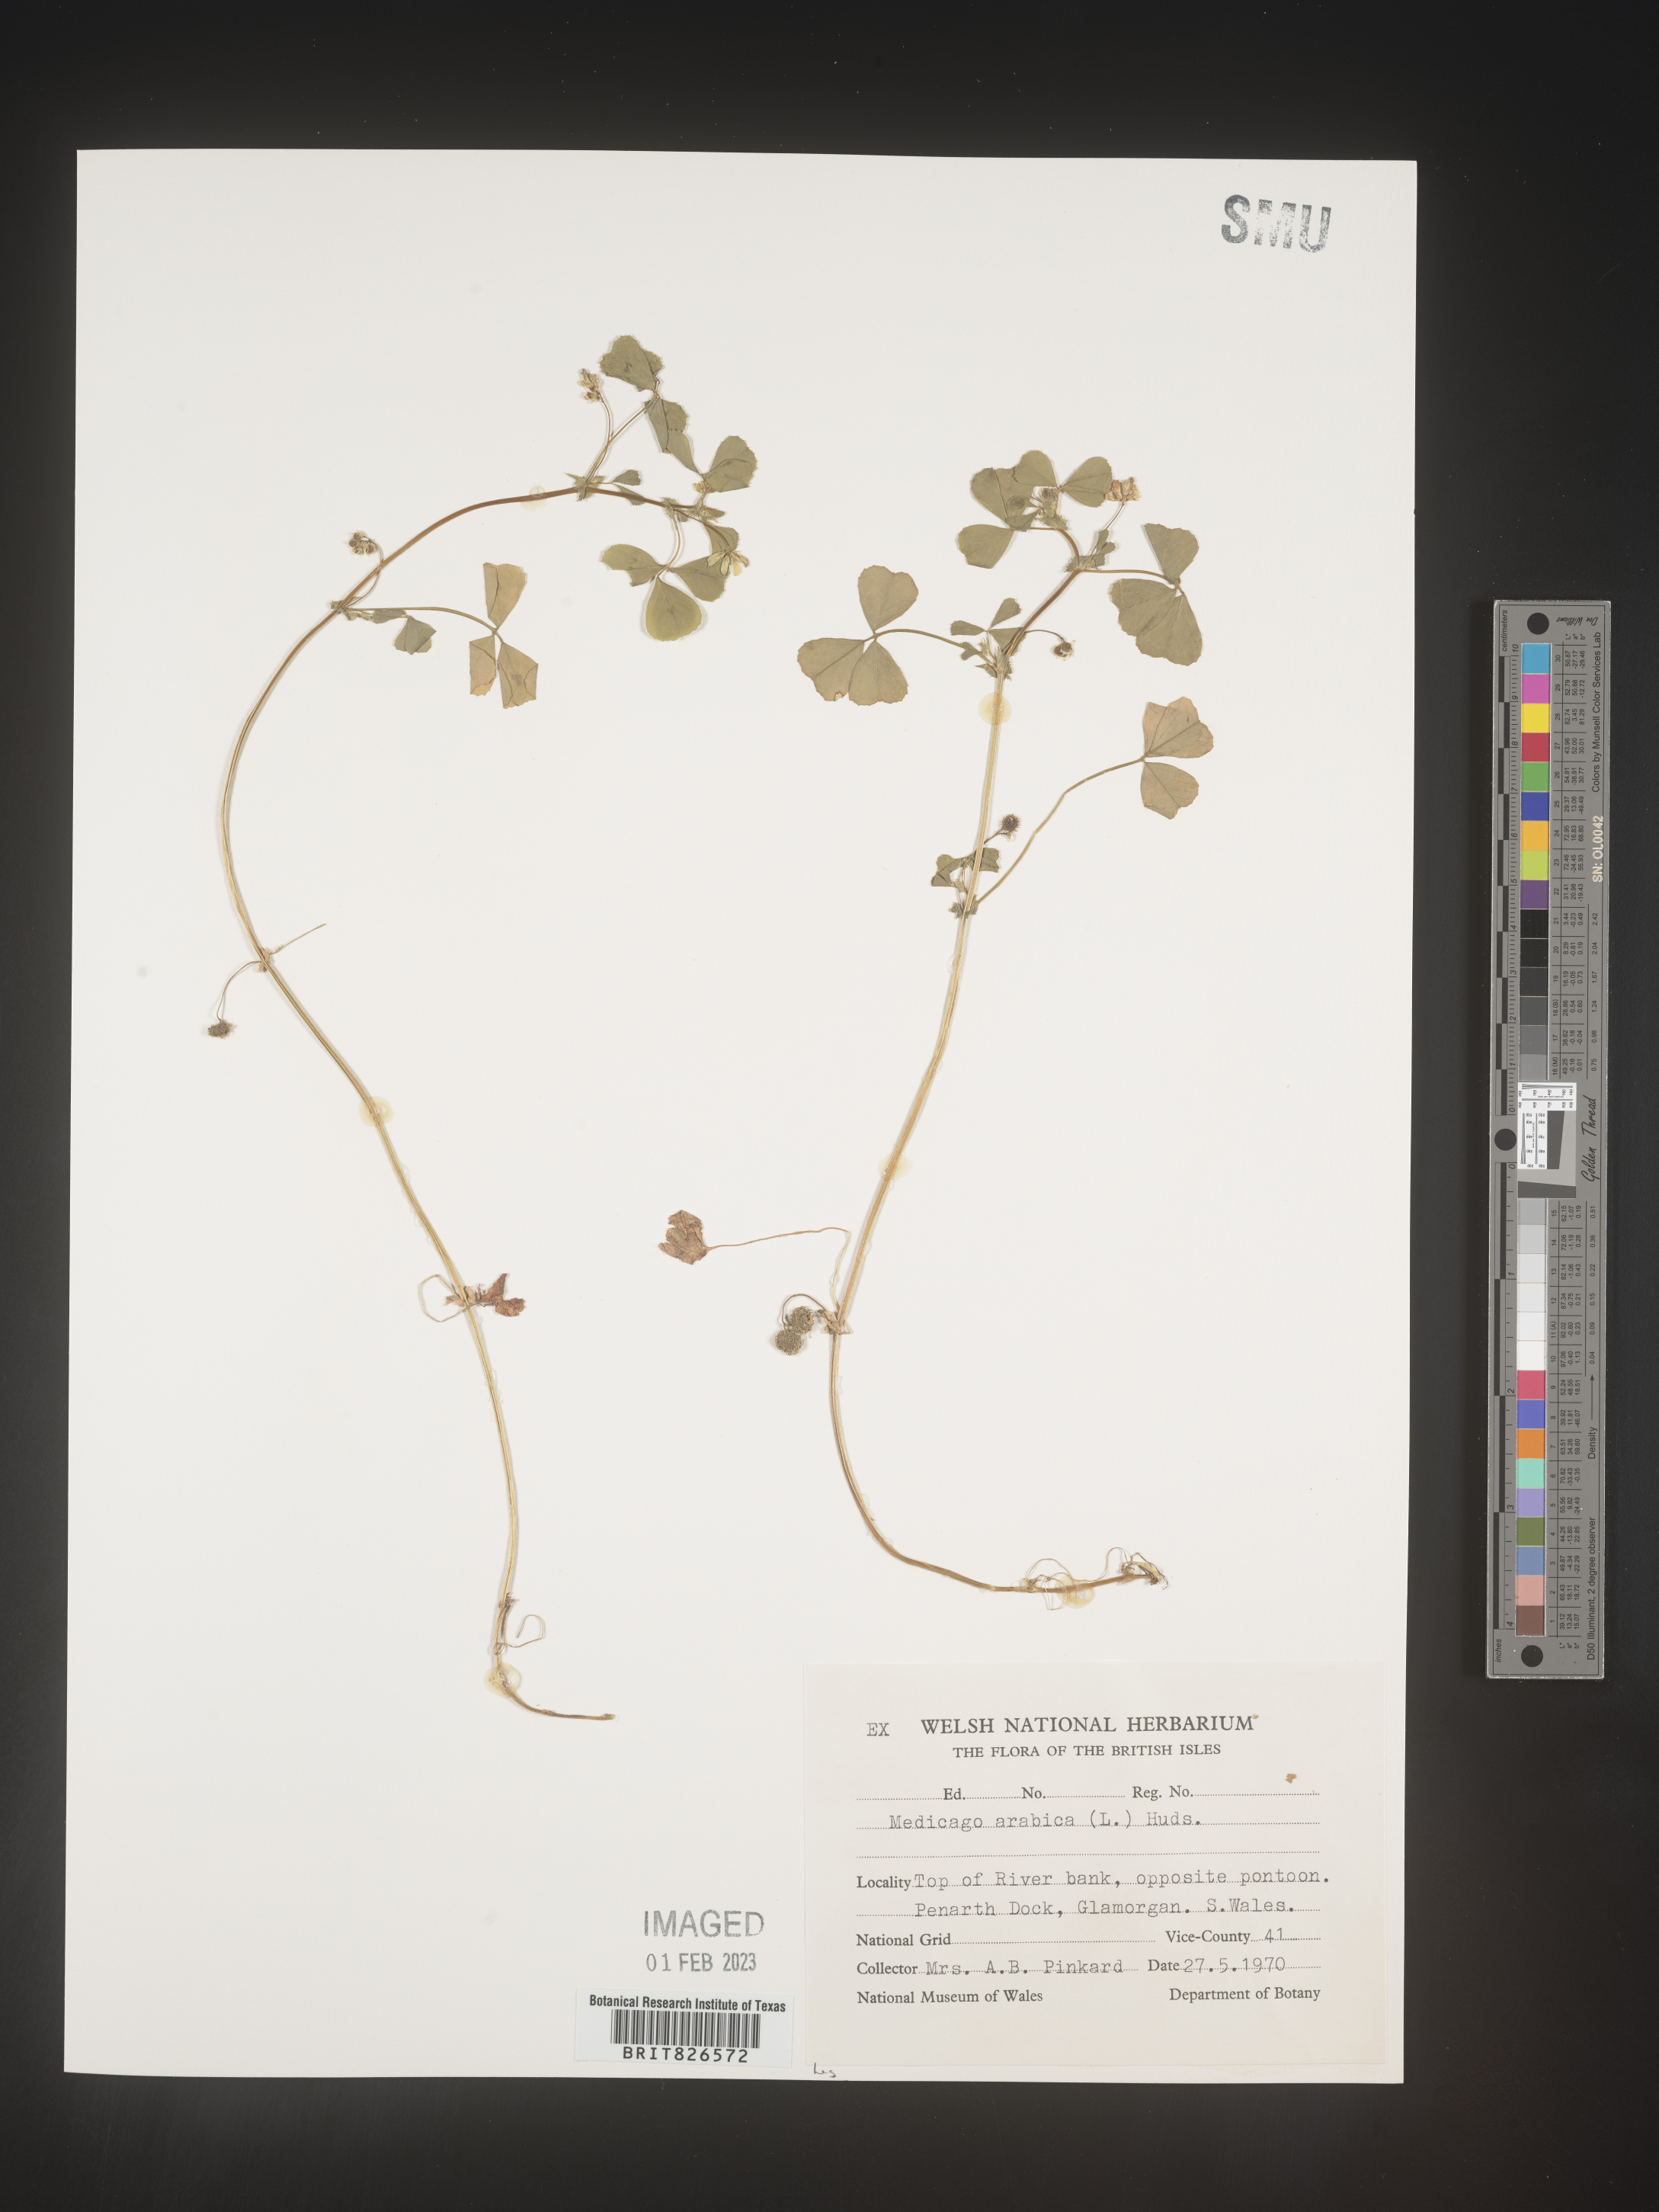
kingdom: Plantae
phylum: Tracheophyta
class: Magnoliopsida
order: Fabales
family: Fabaceae
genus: Medicago
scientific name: Medicago
